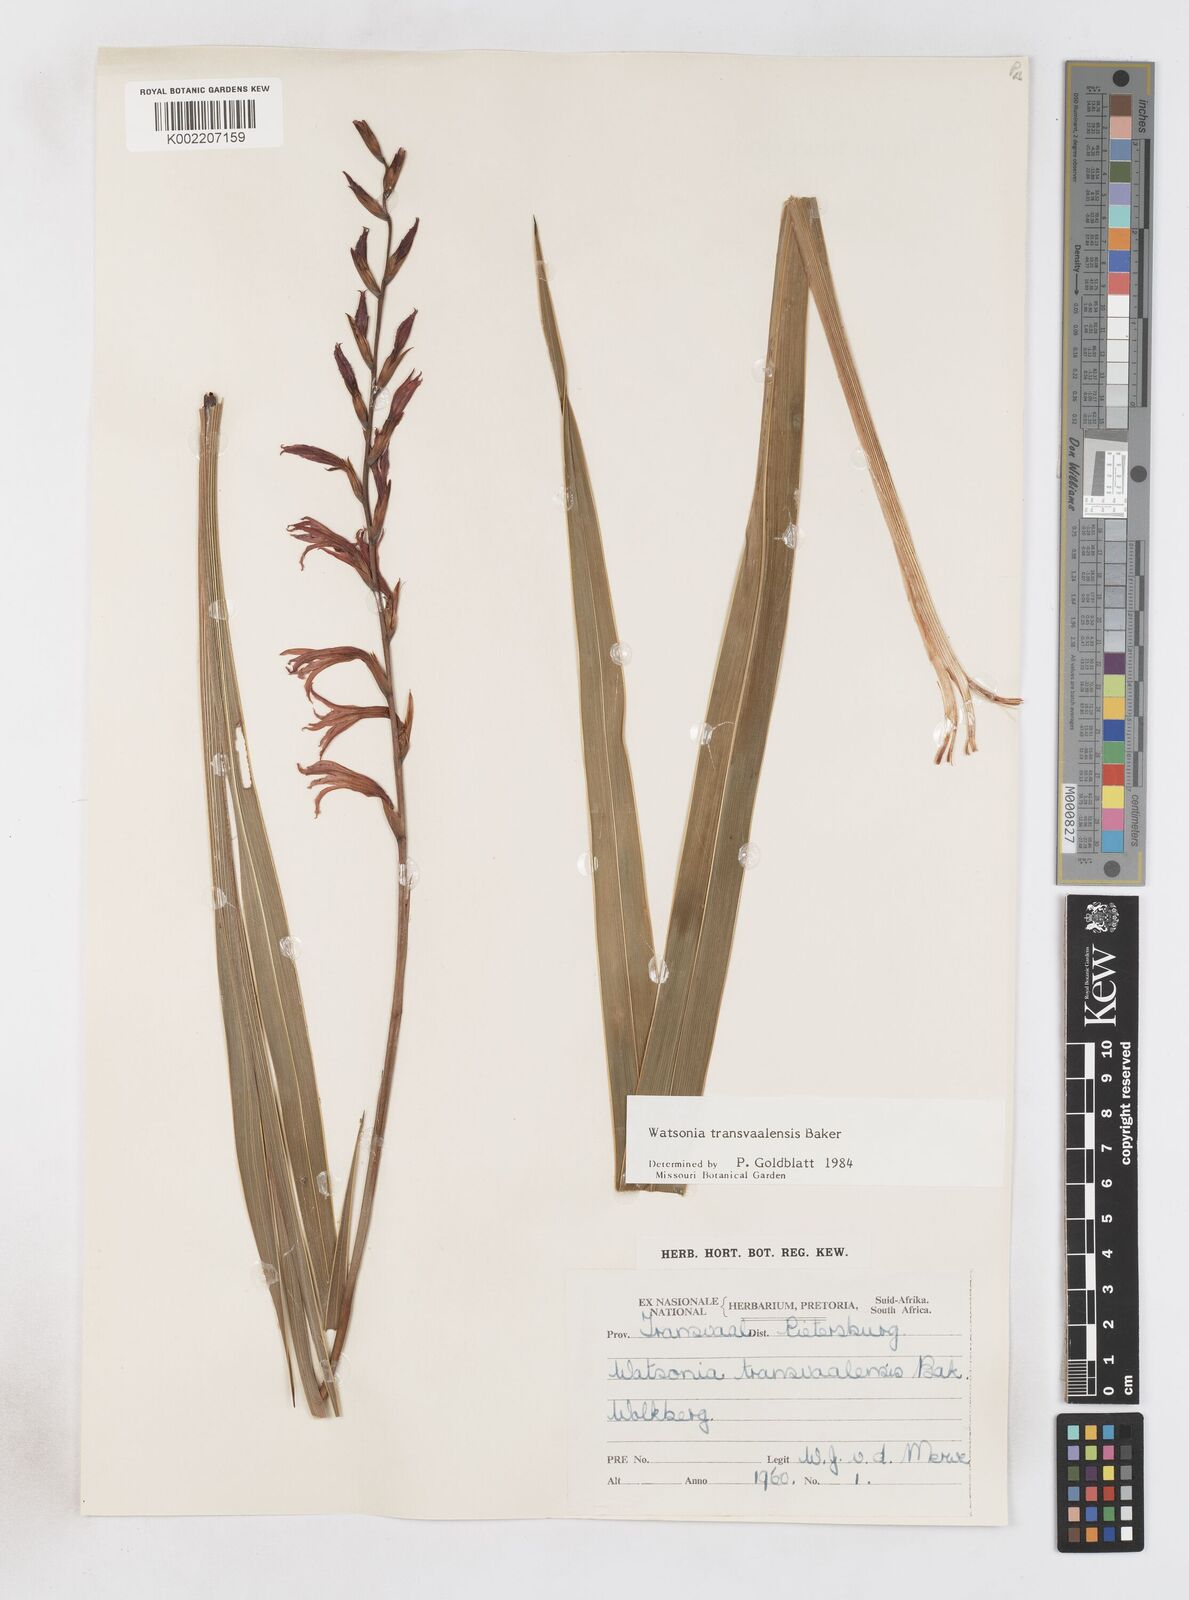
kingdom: Plantae
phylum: Tracheophyta
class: Liliopsida
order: Asparagales
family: Iridaceae
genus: Watsonia
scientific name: Watsonia transvaalensis
